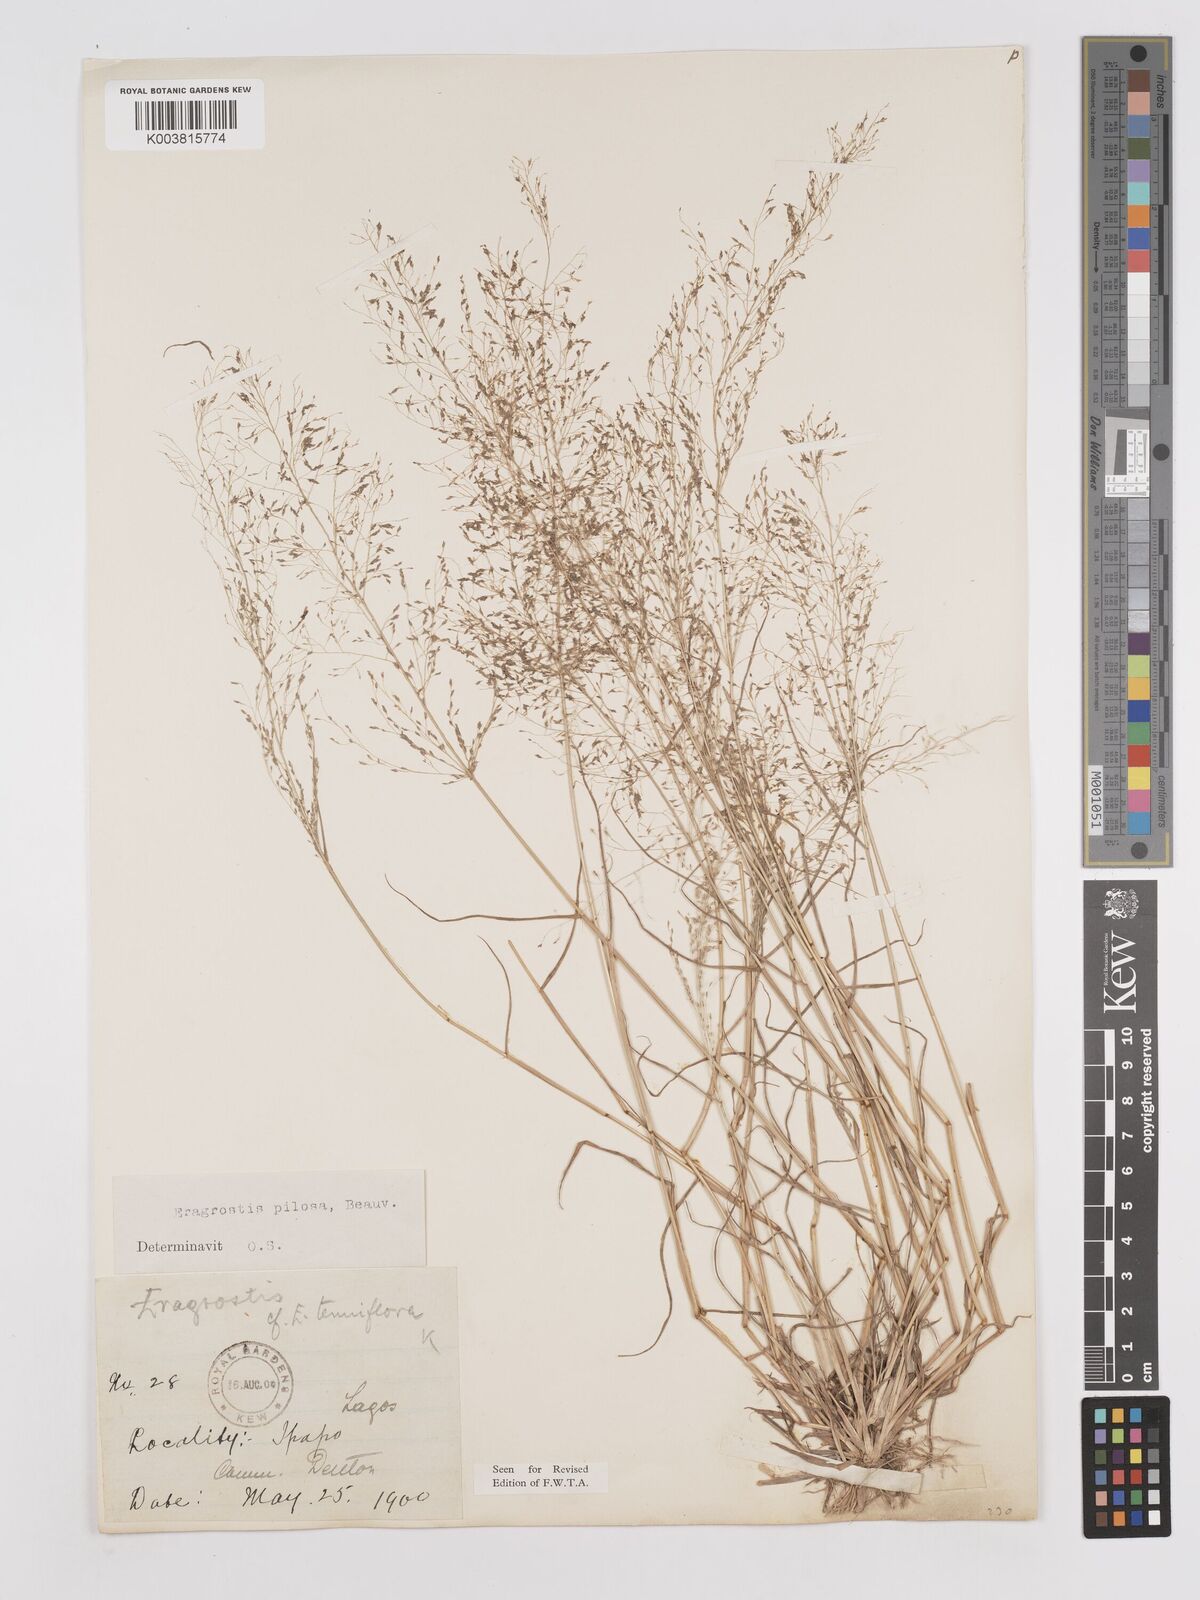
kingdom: Plantae
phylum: Tracheophyta
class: Liliopsida
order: Poales
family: Poaceae
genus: Eragrostis
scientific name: Eragrostis pilosa
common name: Indian lovegrass
